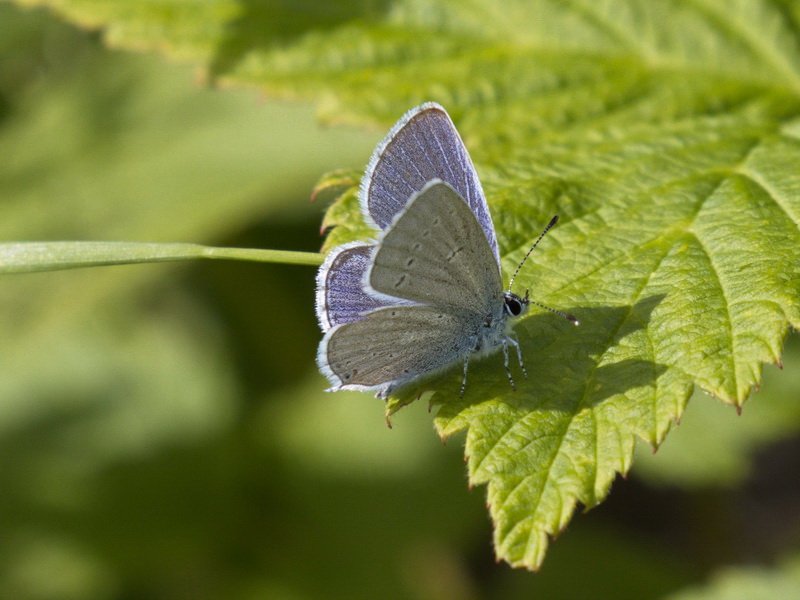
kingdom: Animalia
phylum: Arthropoda
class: Insecta
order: Lepidoptera
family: Lycaenidae
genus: Elkalyce
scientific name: Elkalyce amyntula
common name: Western Tailed-Blue
